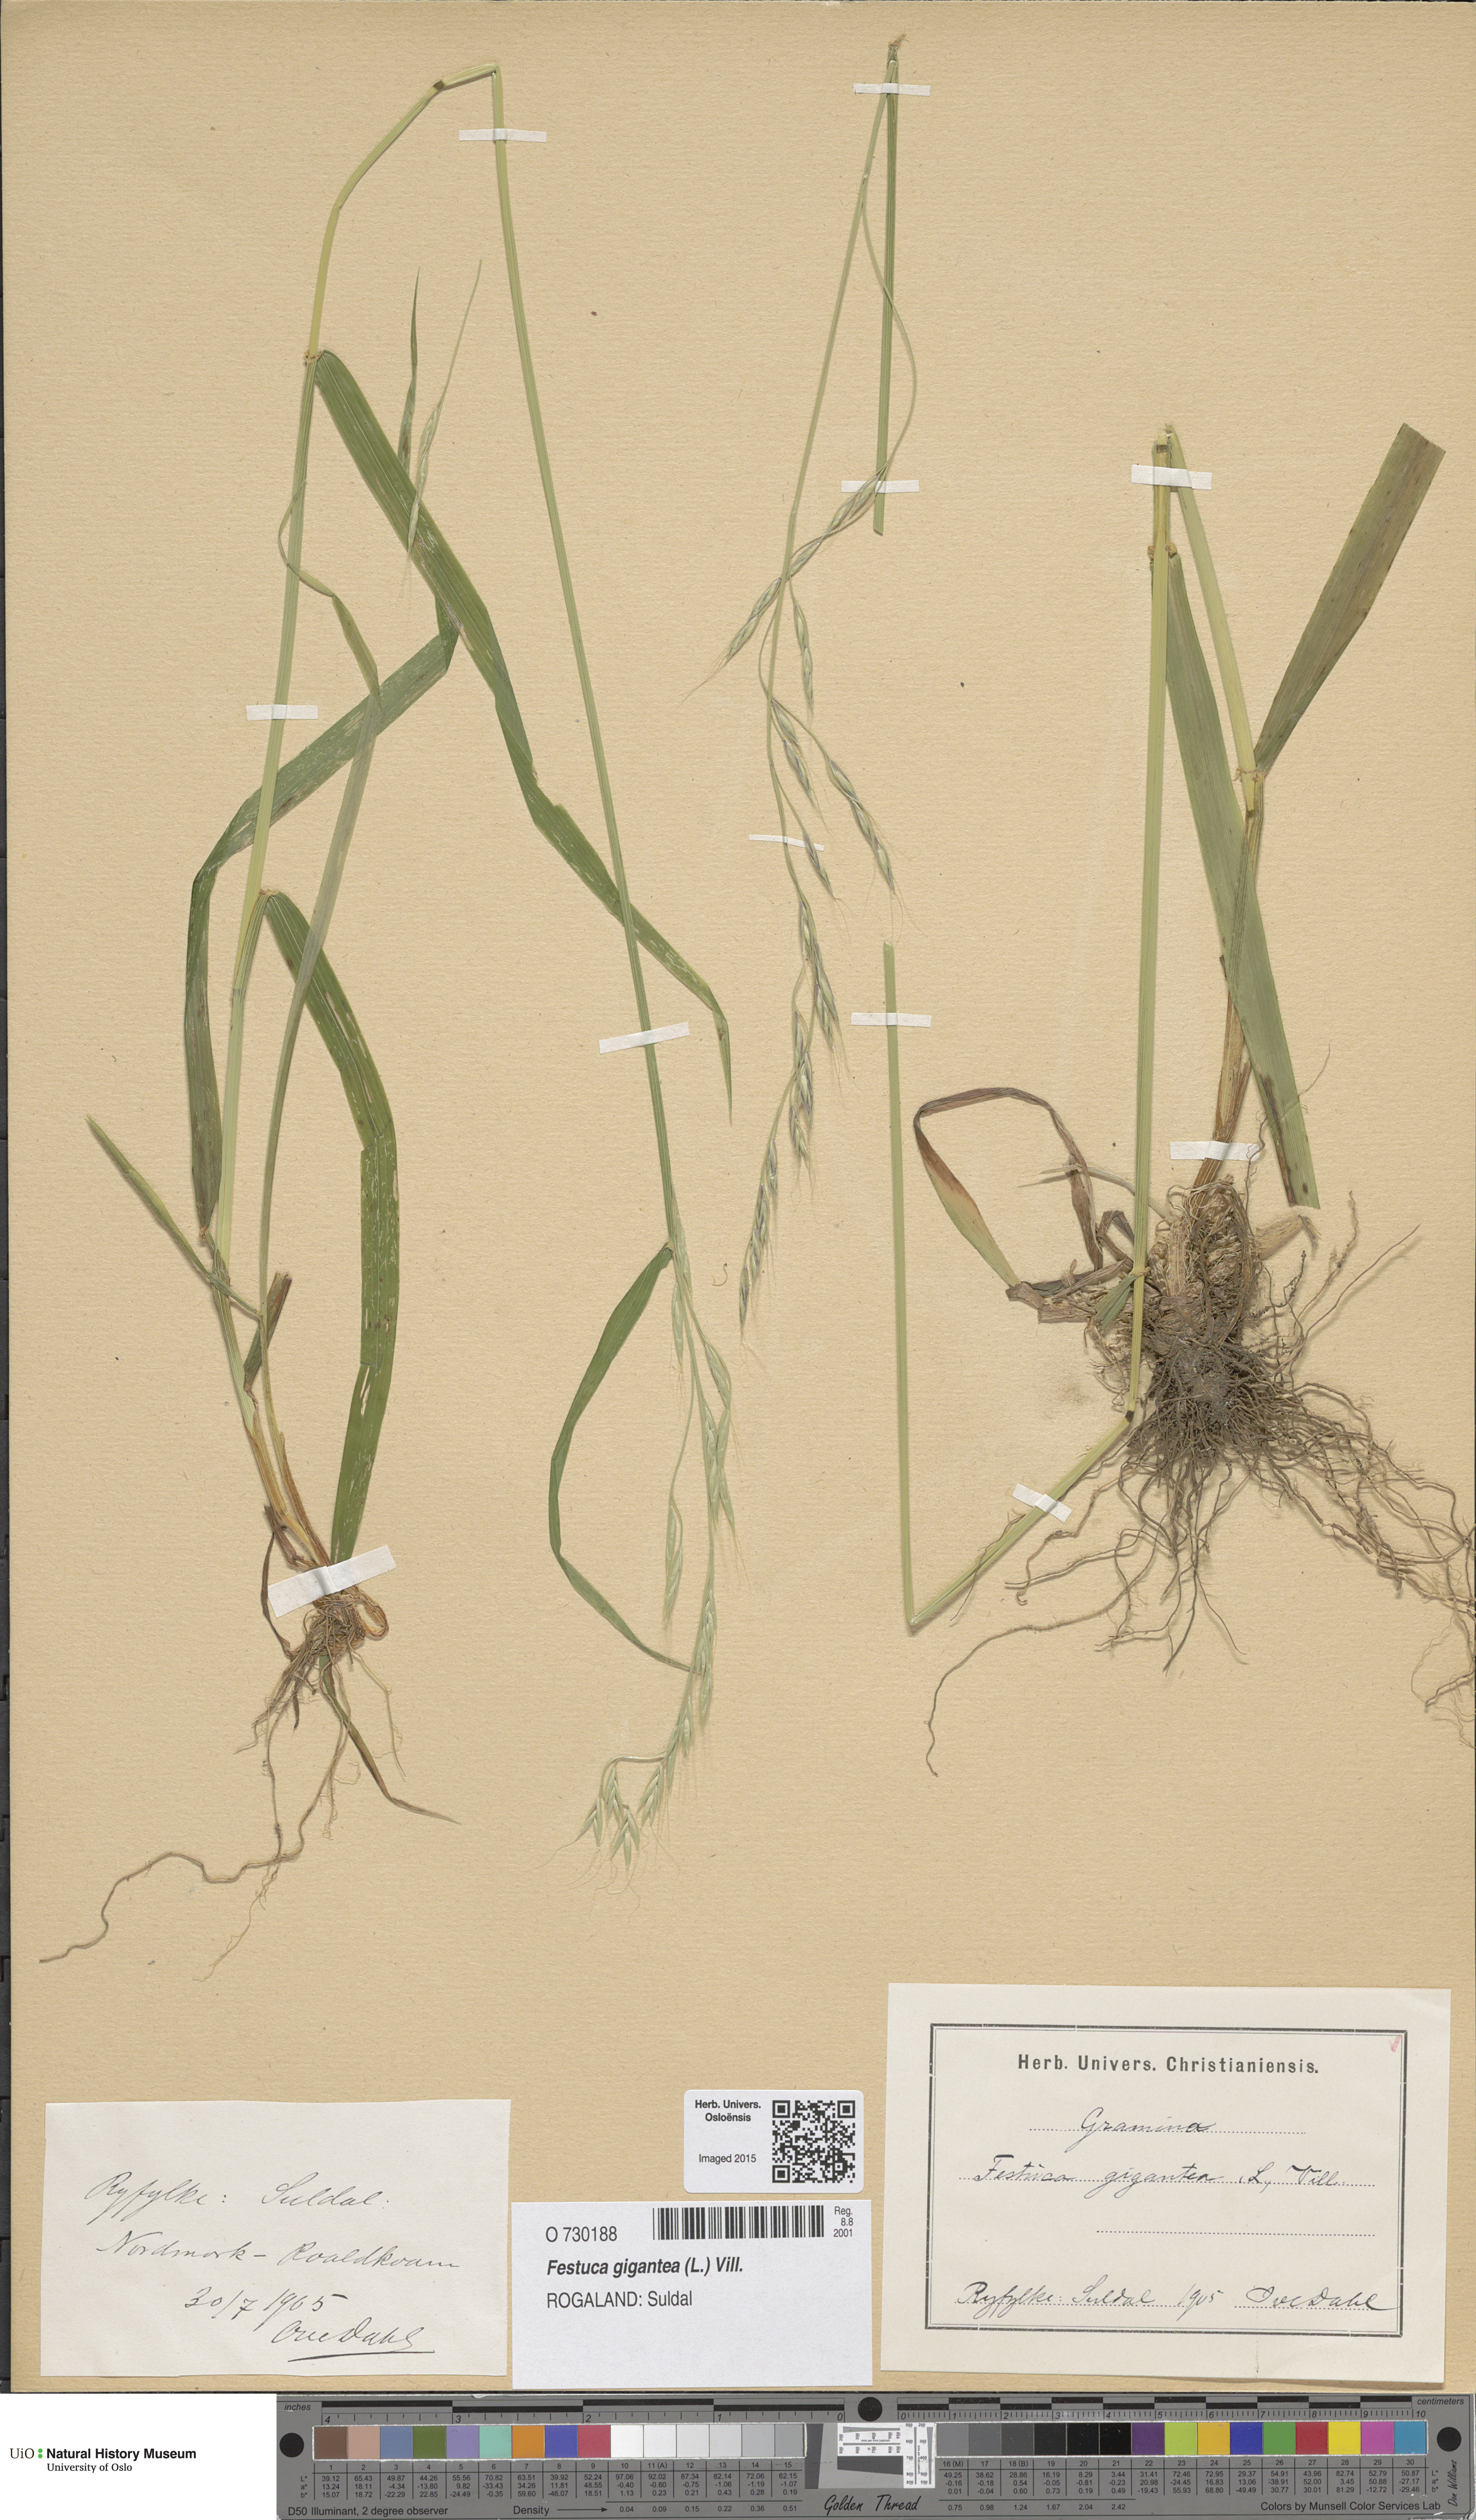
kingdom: Plantae
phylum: Tracheophyta
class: Liliopsida
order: Poales
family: Poaceae
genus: Lolium
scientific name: Lolium giganteum
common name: Giant fescue
